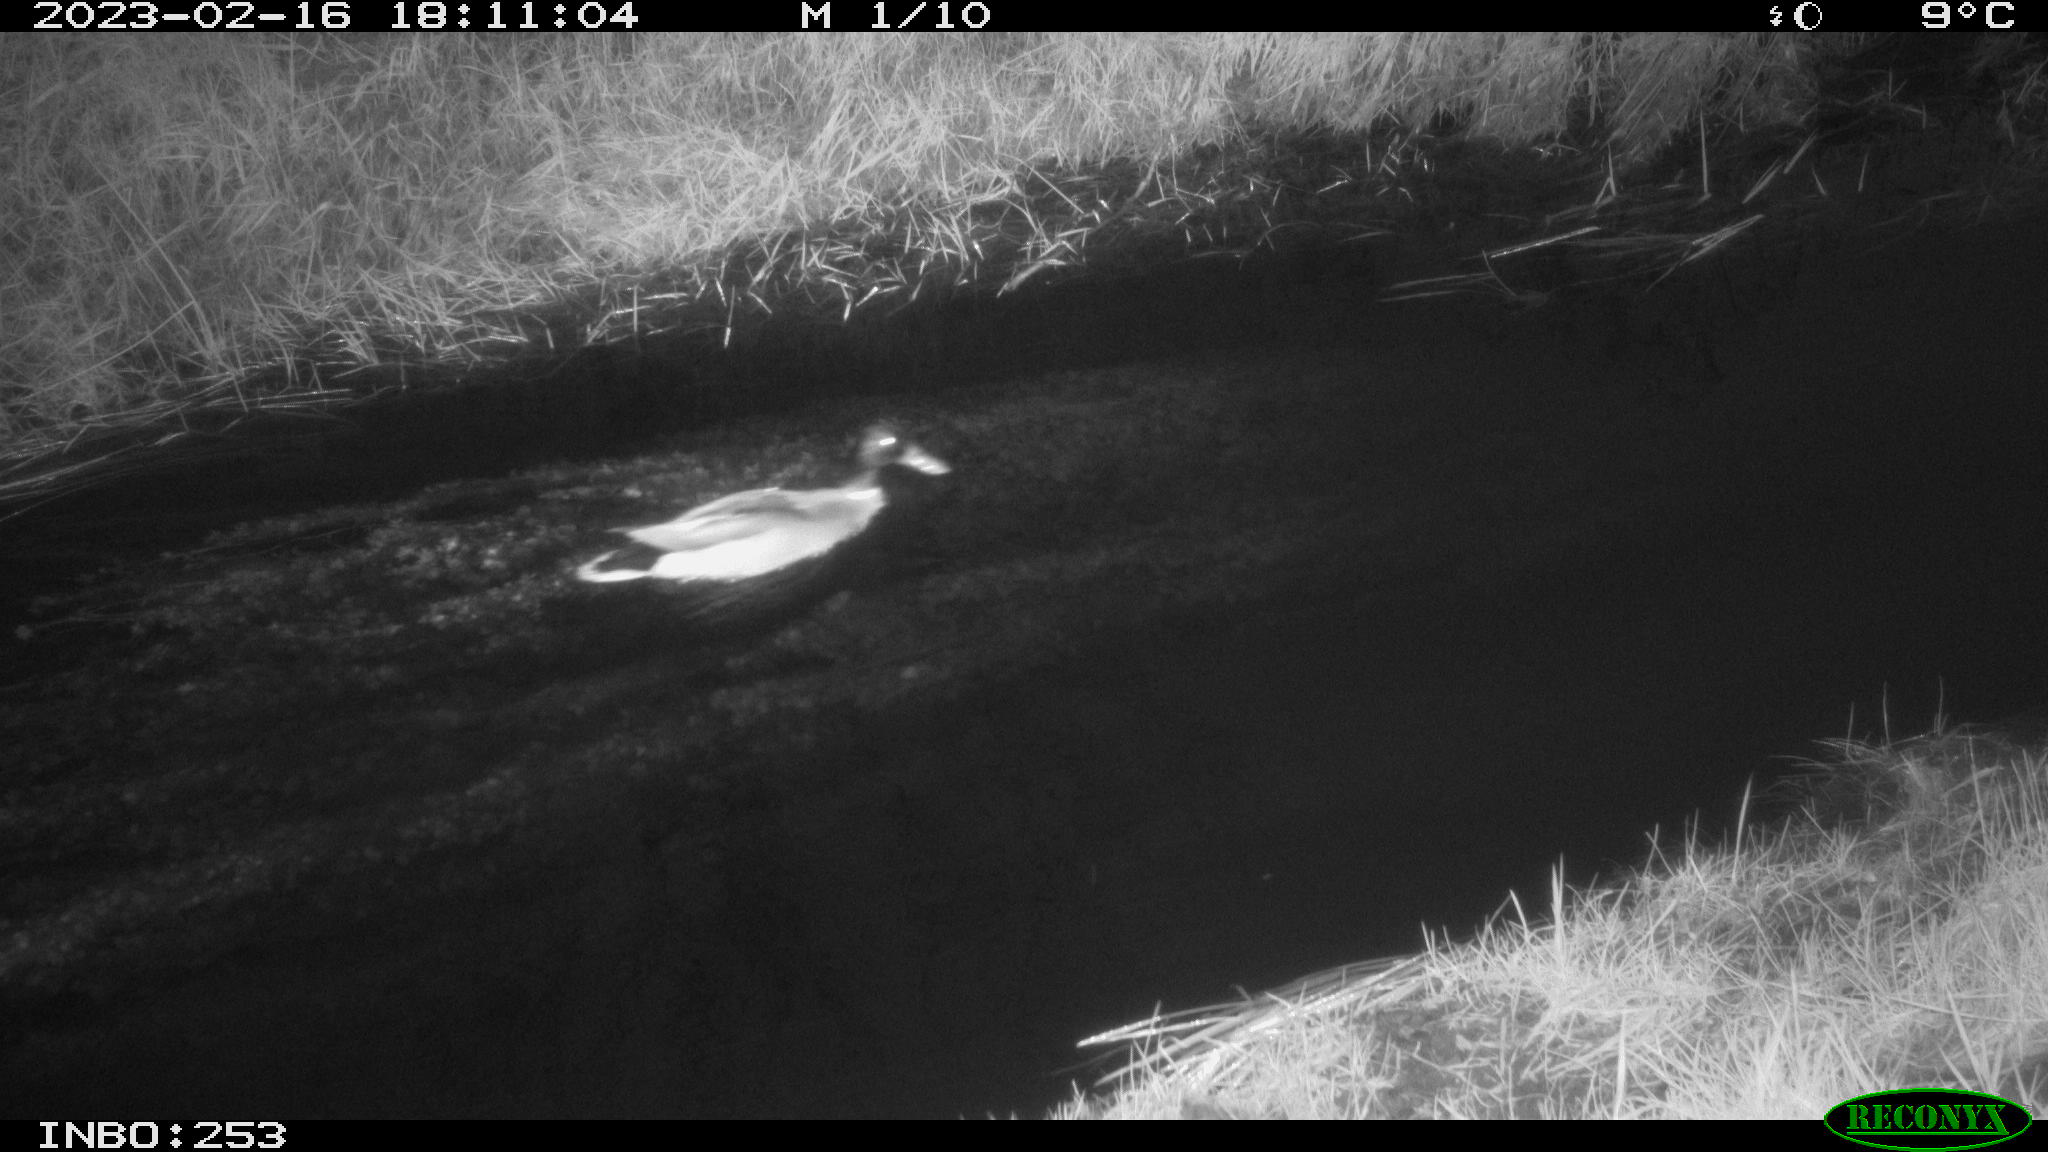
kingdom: Animalia
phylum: Chordata
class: Aves
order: Anseriformes
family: Anatidae
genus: Anas
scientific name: Anas
